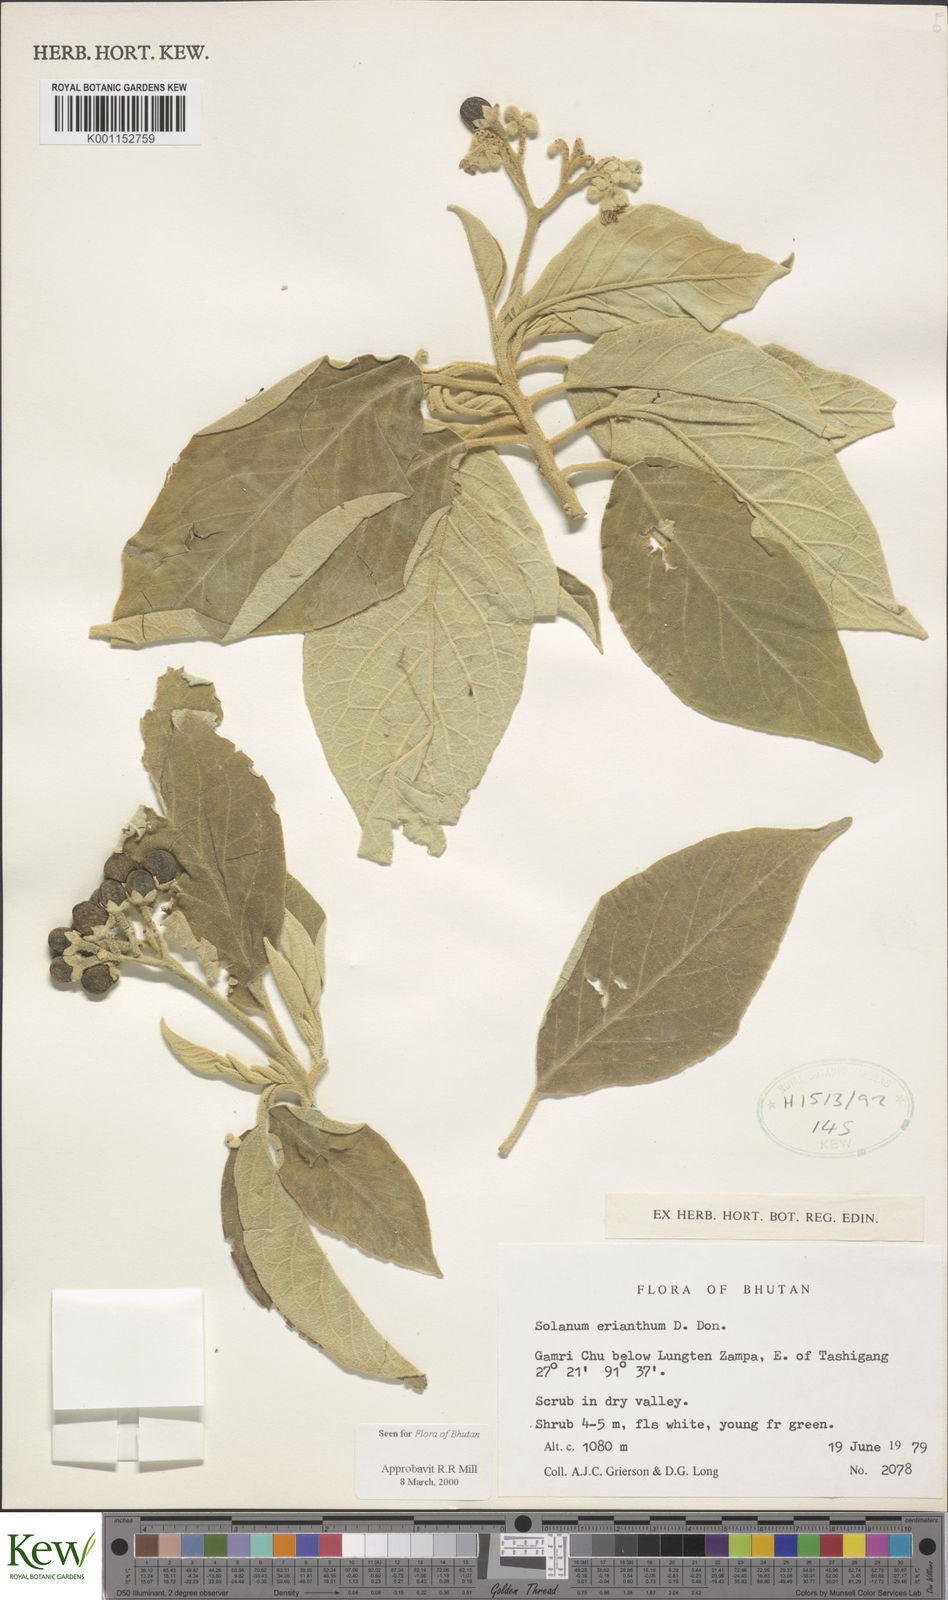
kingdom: Plantae
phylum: Tracheophyta
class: Magnoliopsida
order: Solanales
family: Solanaceae
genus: Solanum
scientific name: Solanum erianthum
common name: Tobacco-tree
